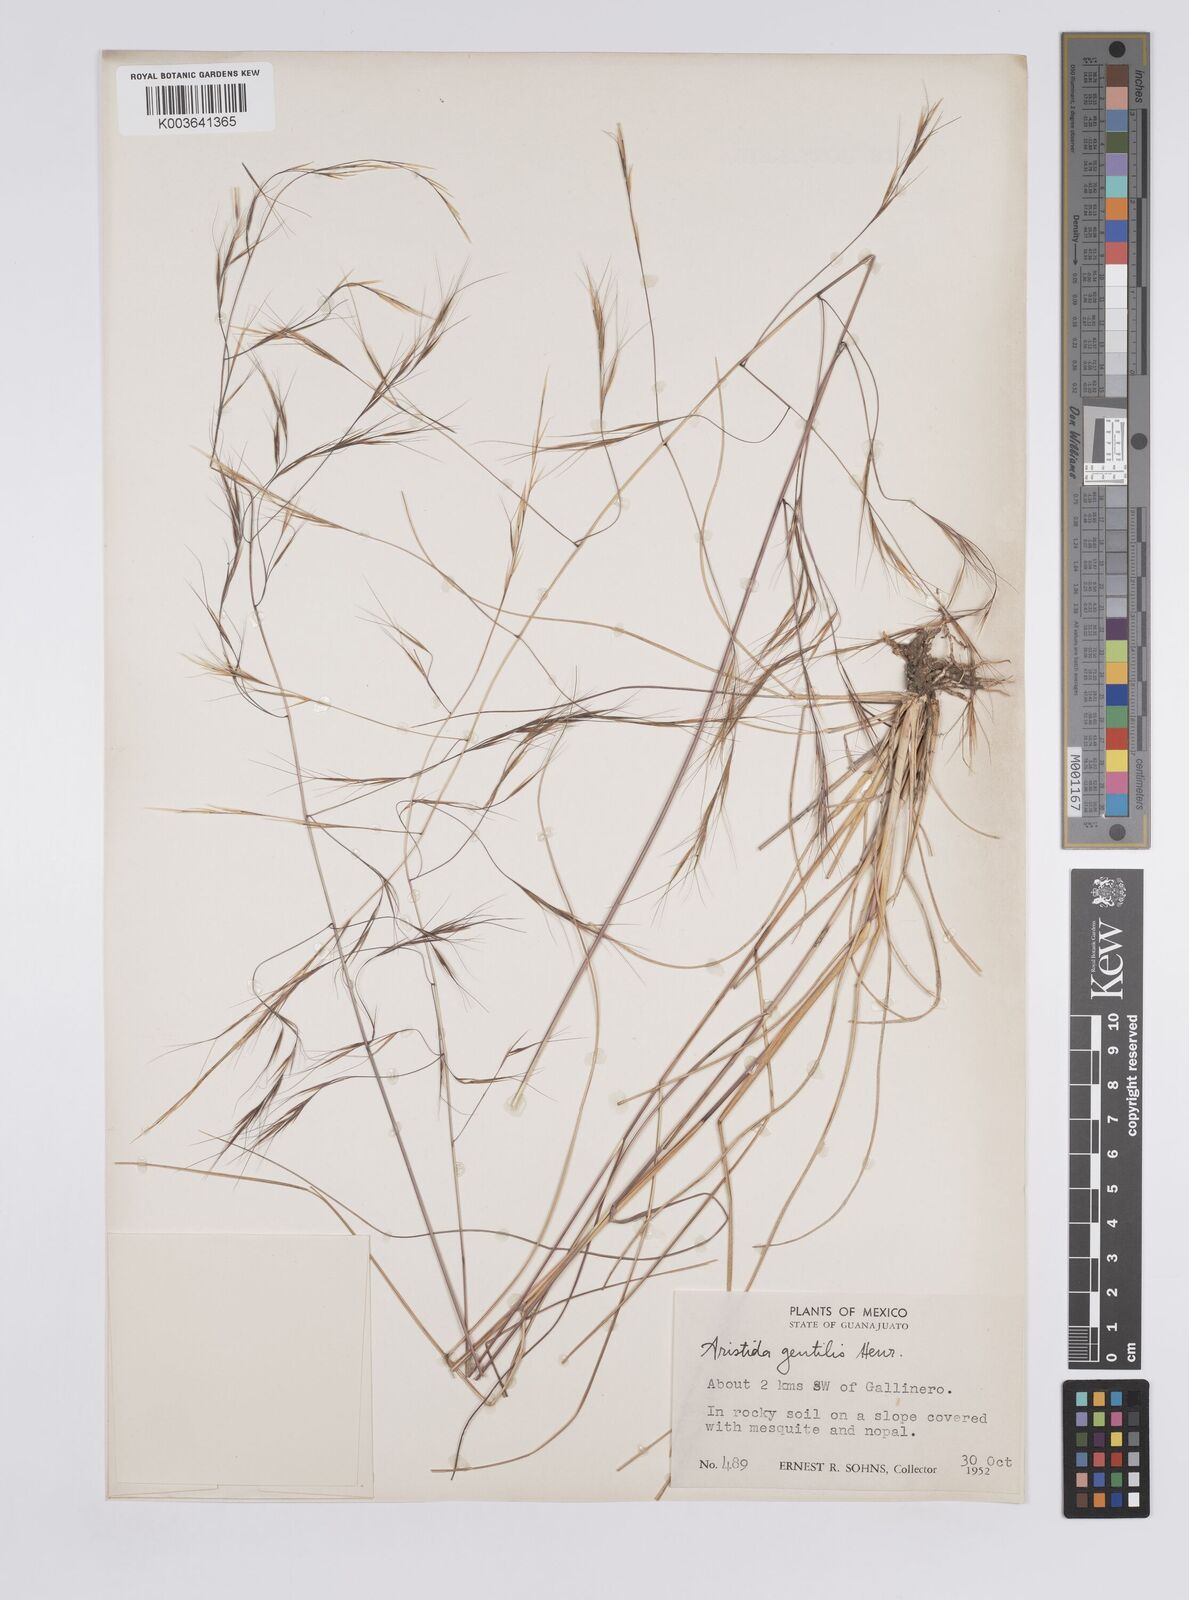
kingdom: Plantae
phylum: Tracheophyta
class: Liliopsida
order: Poales
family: Poaceae
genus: Aristida
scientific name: Aristida hamulosa
